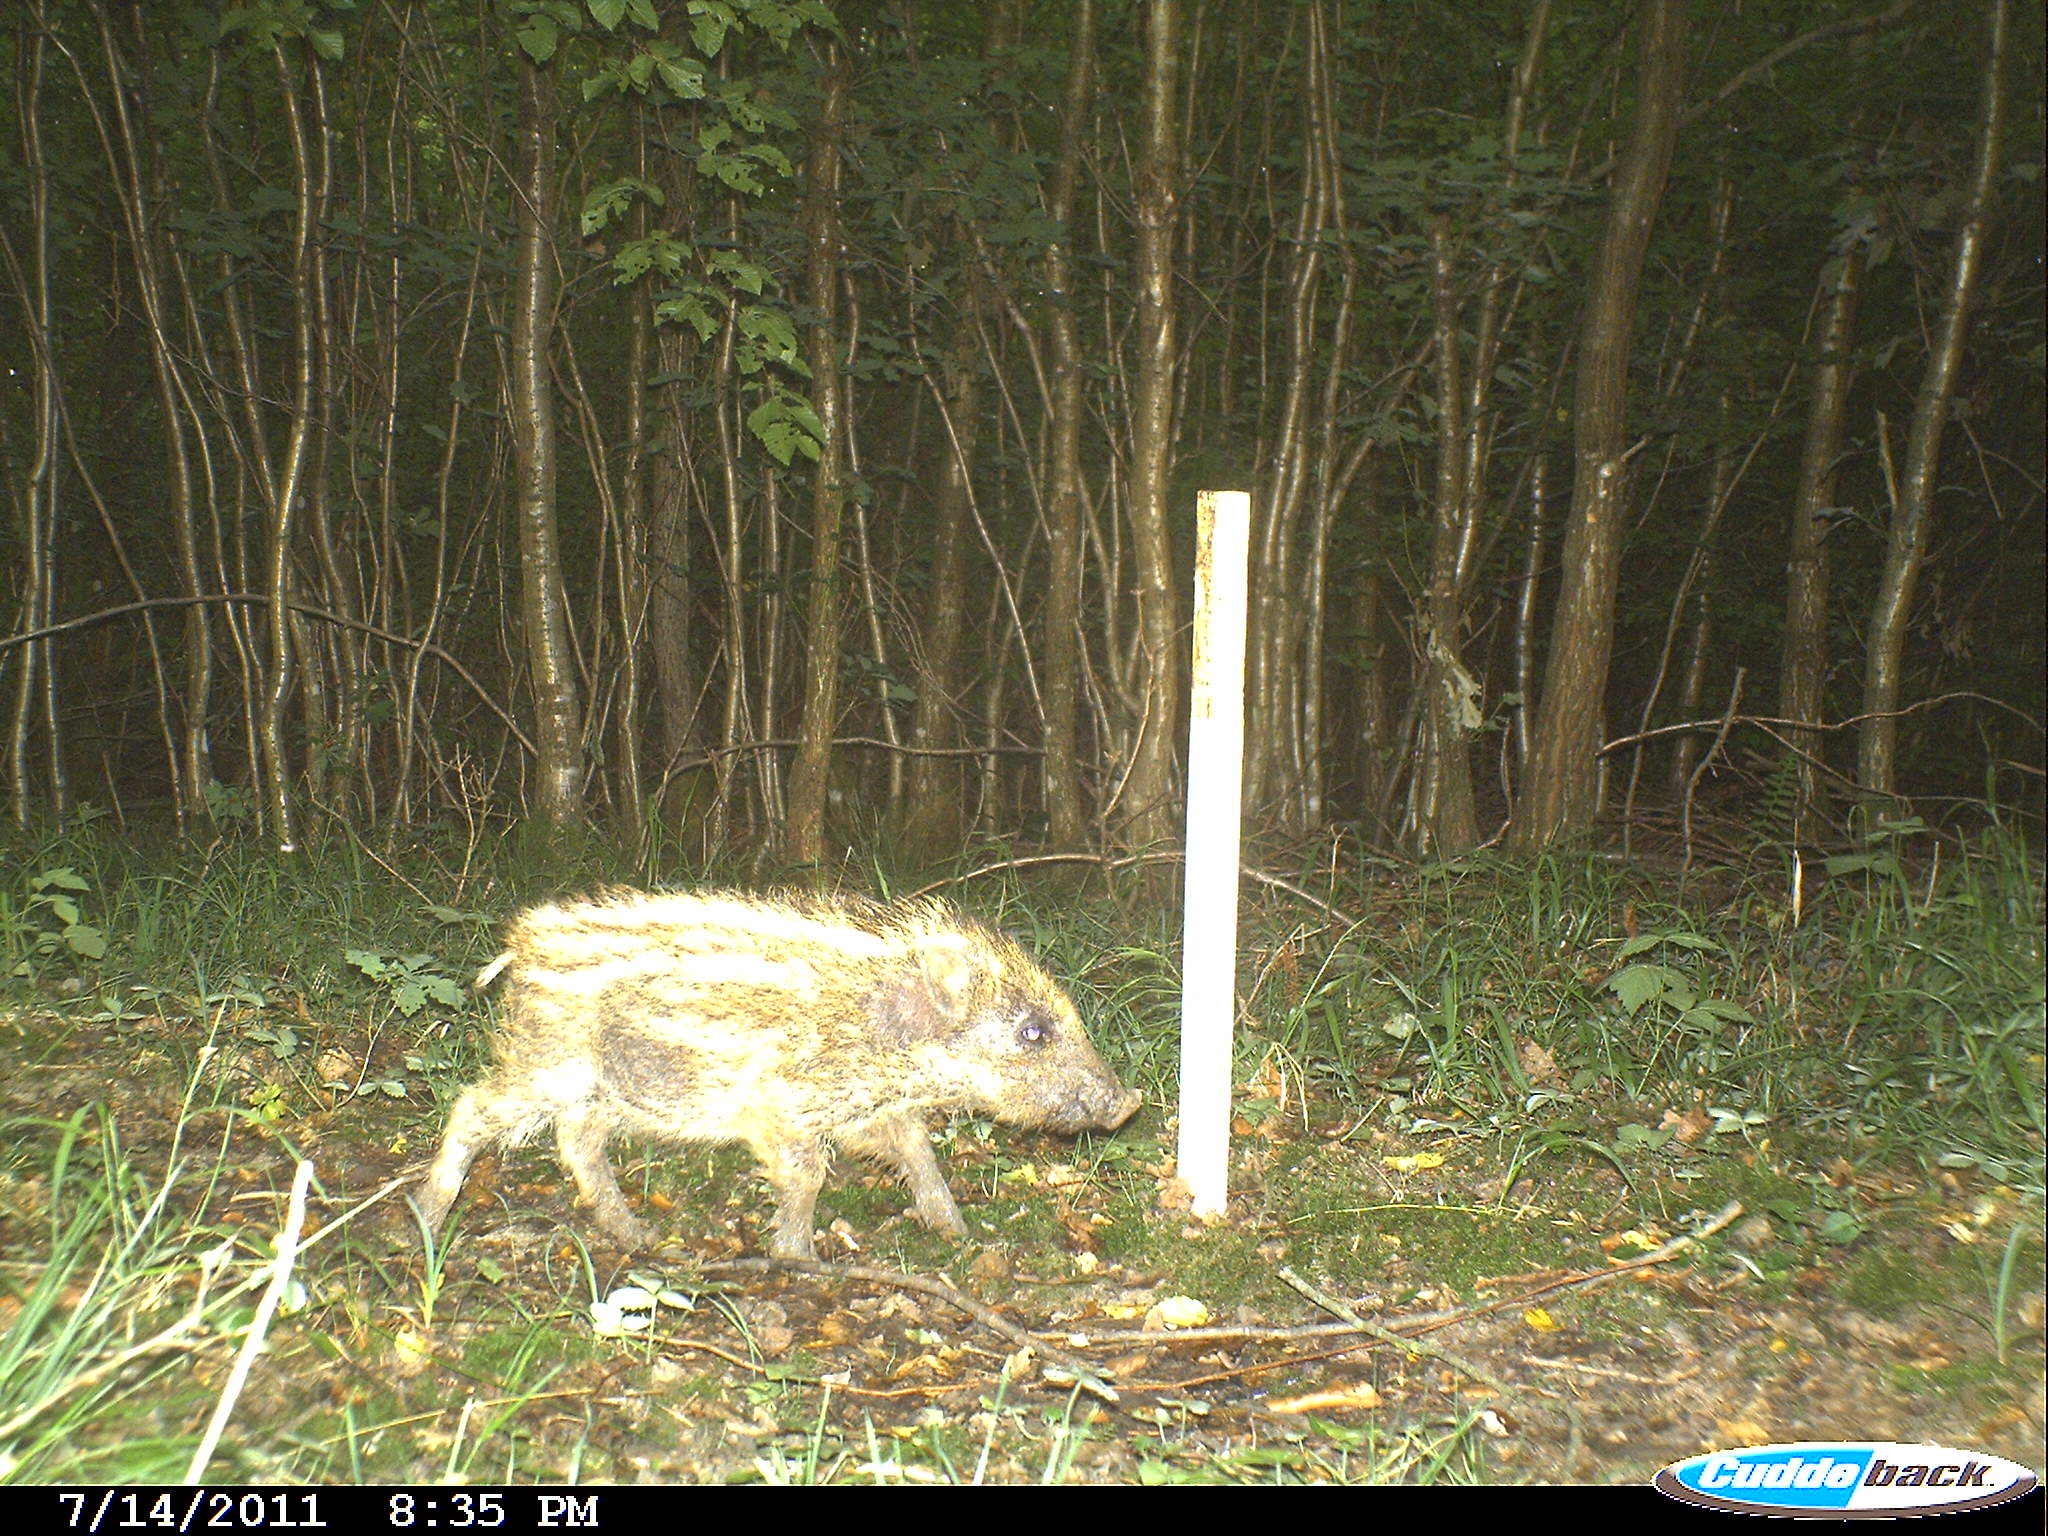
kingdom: Animalia
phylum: Chordata
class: Mammalia
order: Artiodactyla
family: Suidae
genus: Sus
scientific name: Sus scrofa
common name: Wild boar
